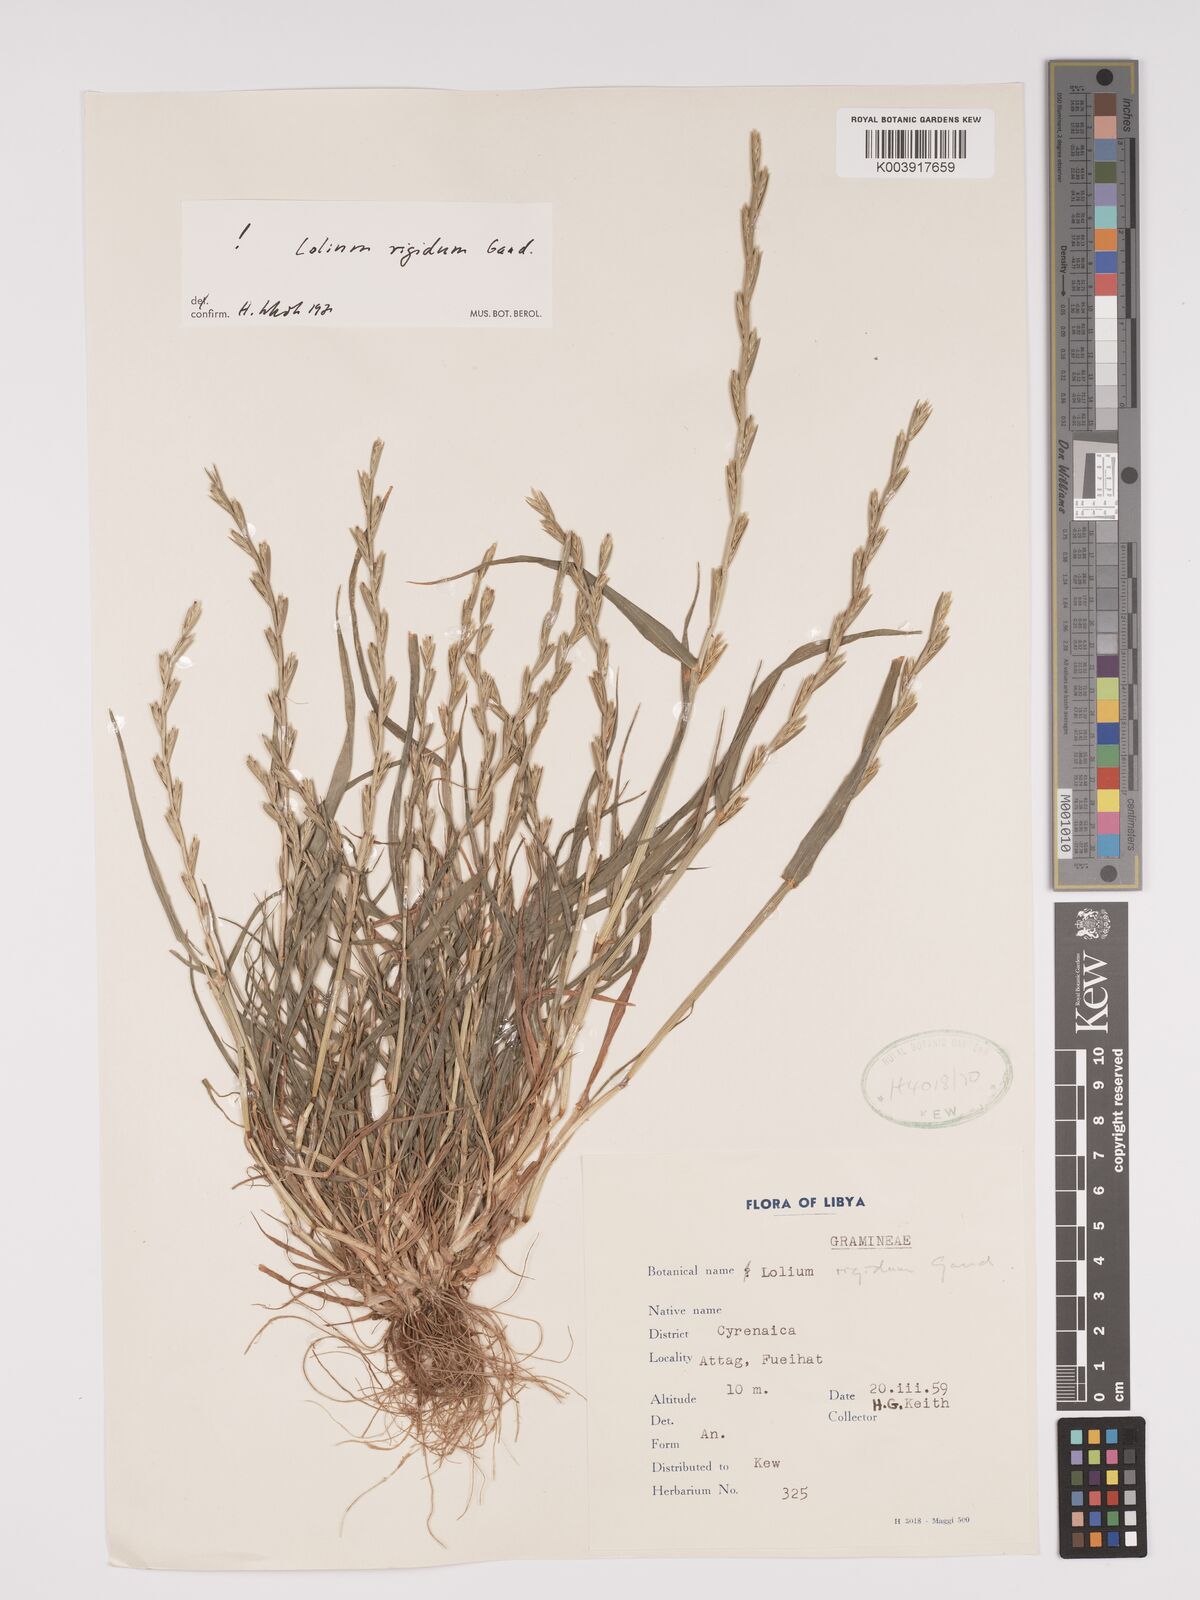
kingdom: Plantae
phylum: Tracheophyta
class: Liliopsida
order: Poales
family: Poaceae
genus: Lolium
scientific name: Lolium rigidum
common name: Wimmera ryegrass
